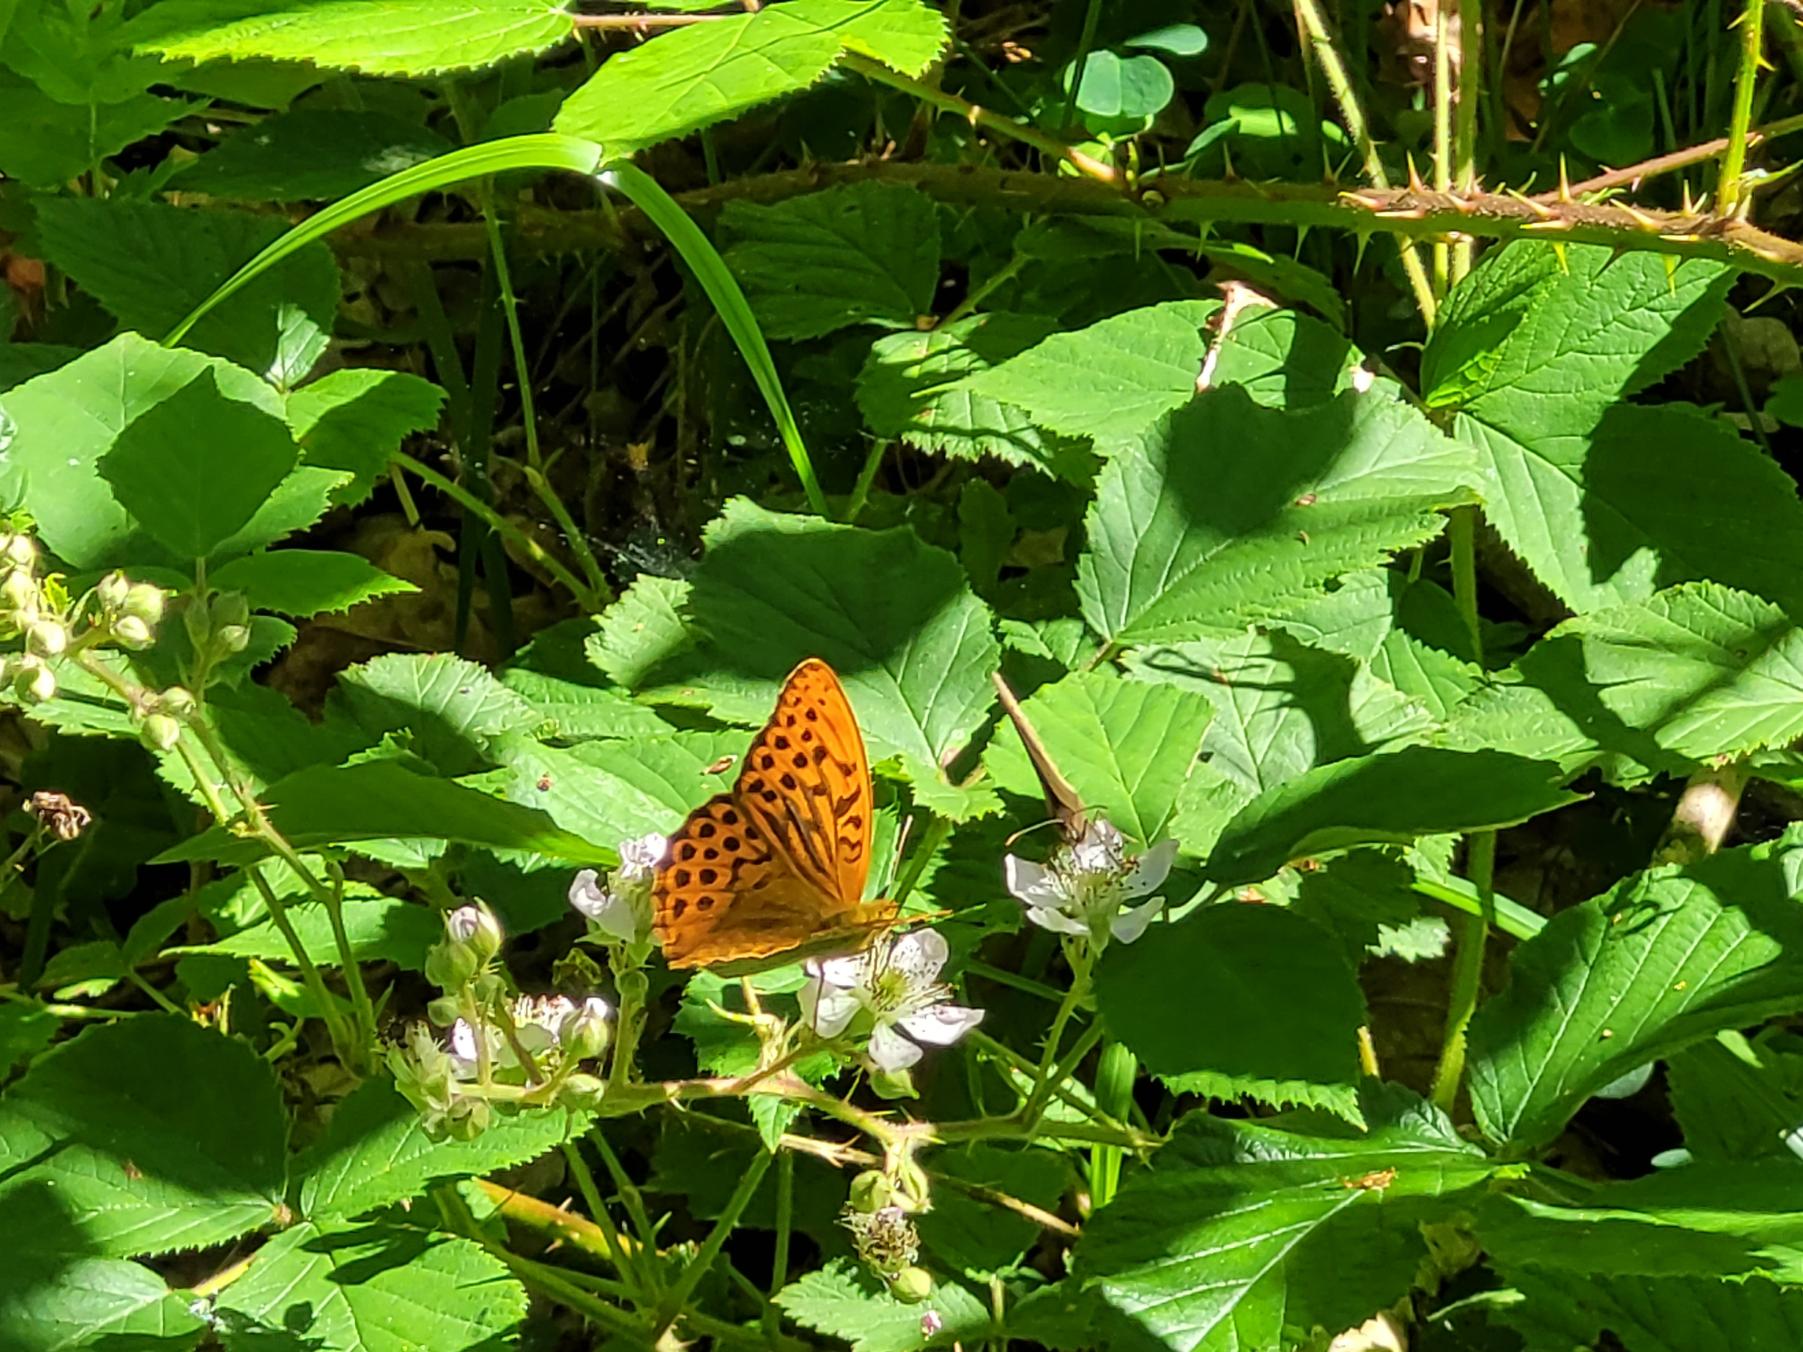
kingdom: Animalia
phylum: Arthropoda
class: Insecta
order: Lepidoptera
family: Nymphalidae
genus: Argynnis
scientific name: Argynnis paphia
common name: Kejserkåbe
